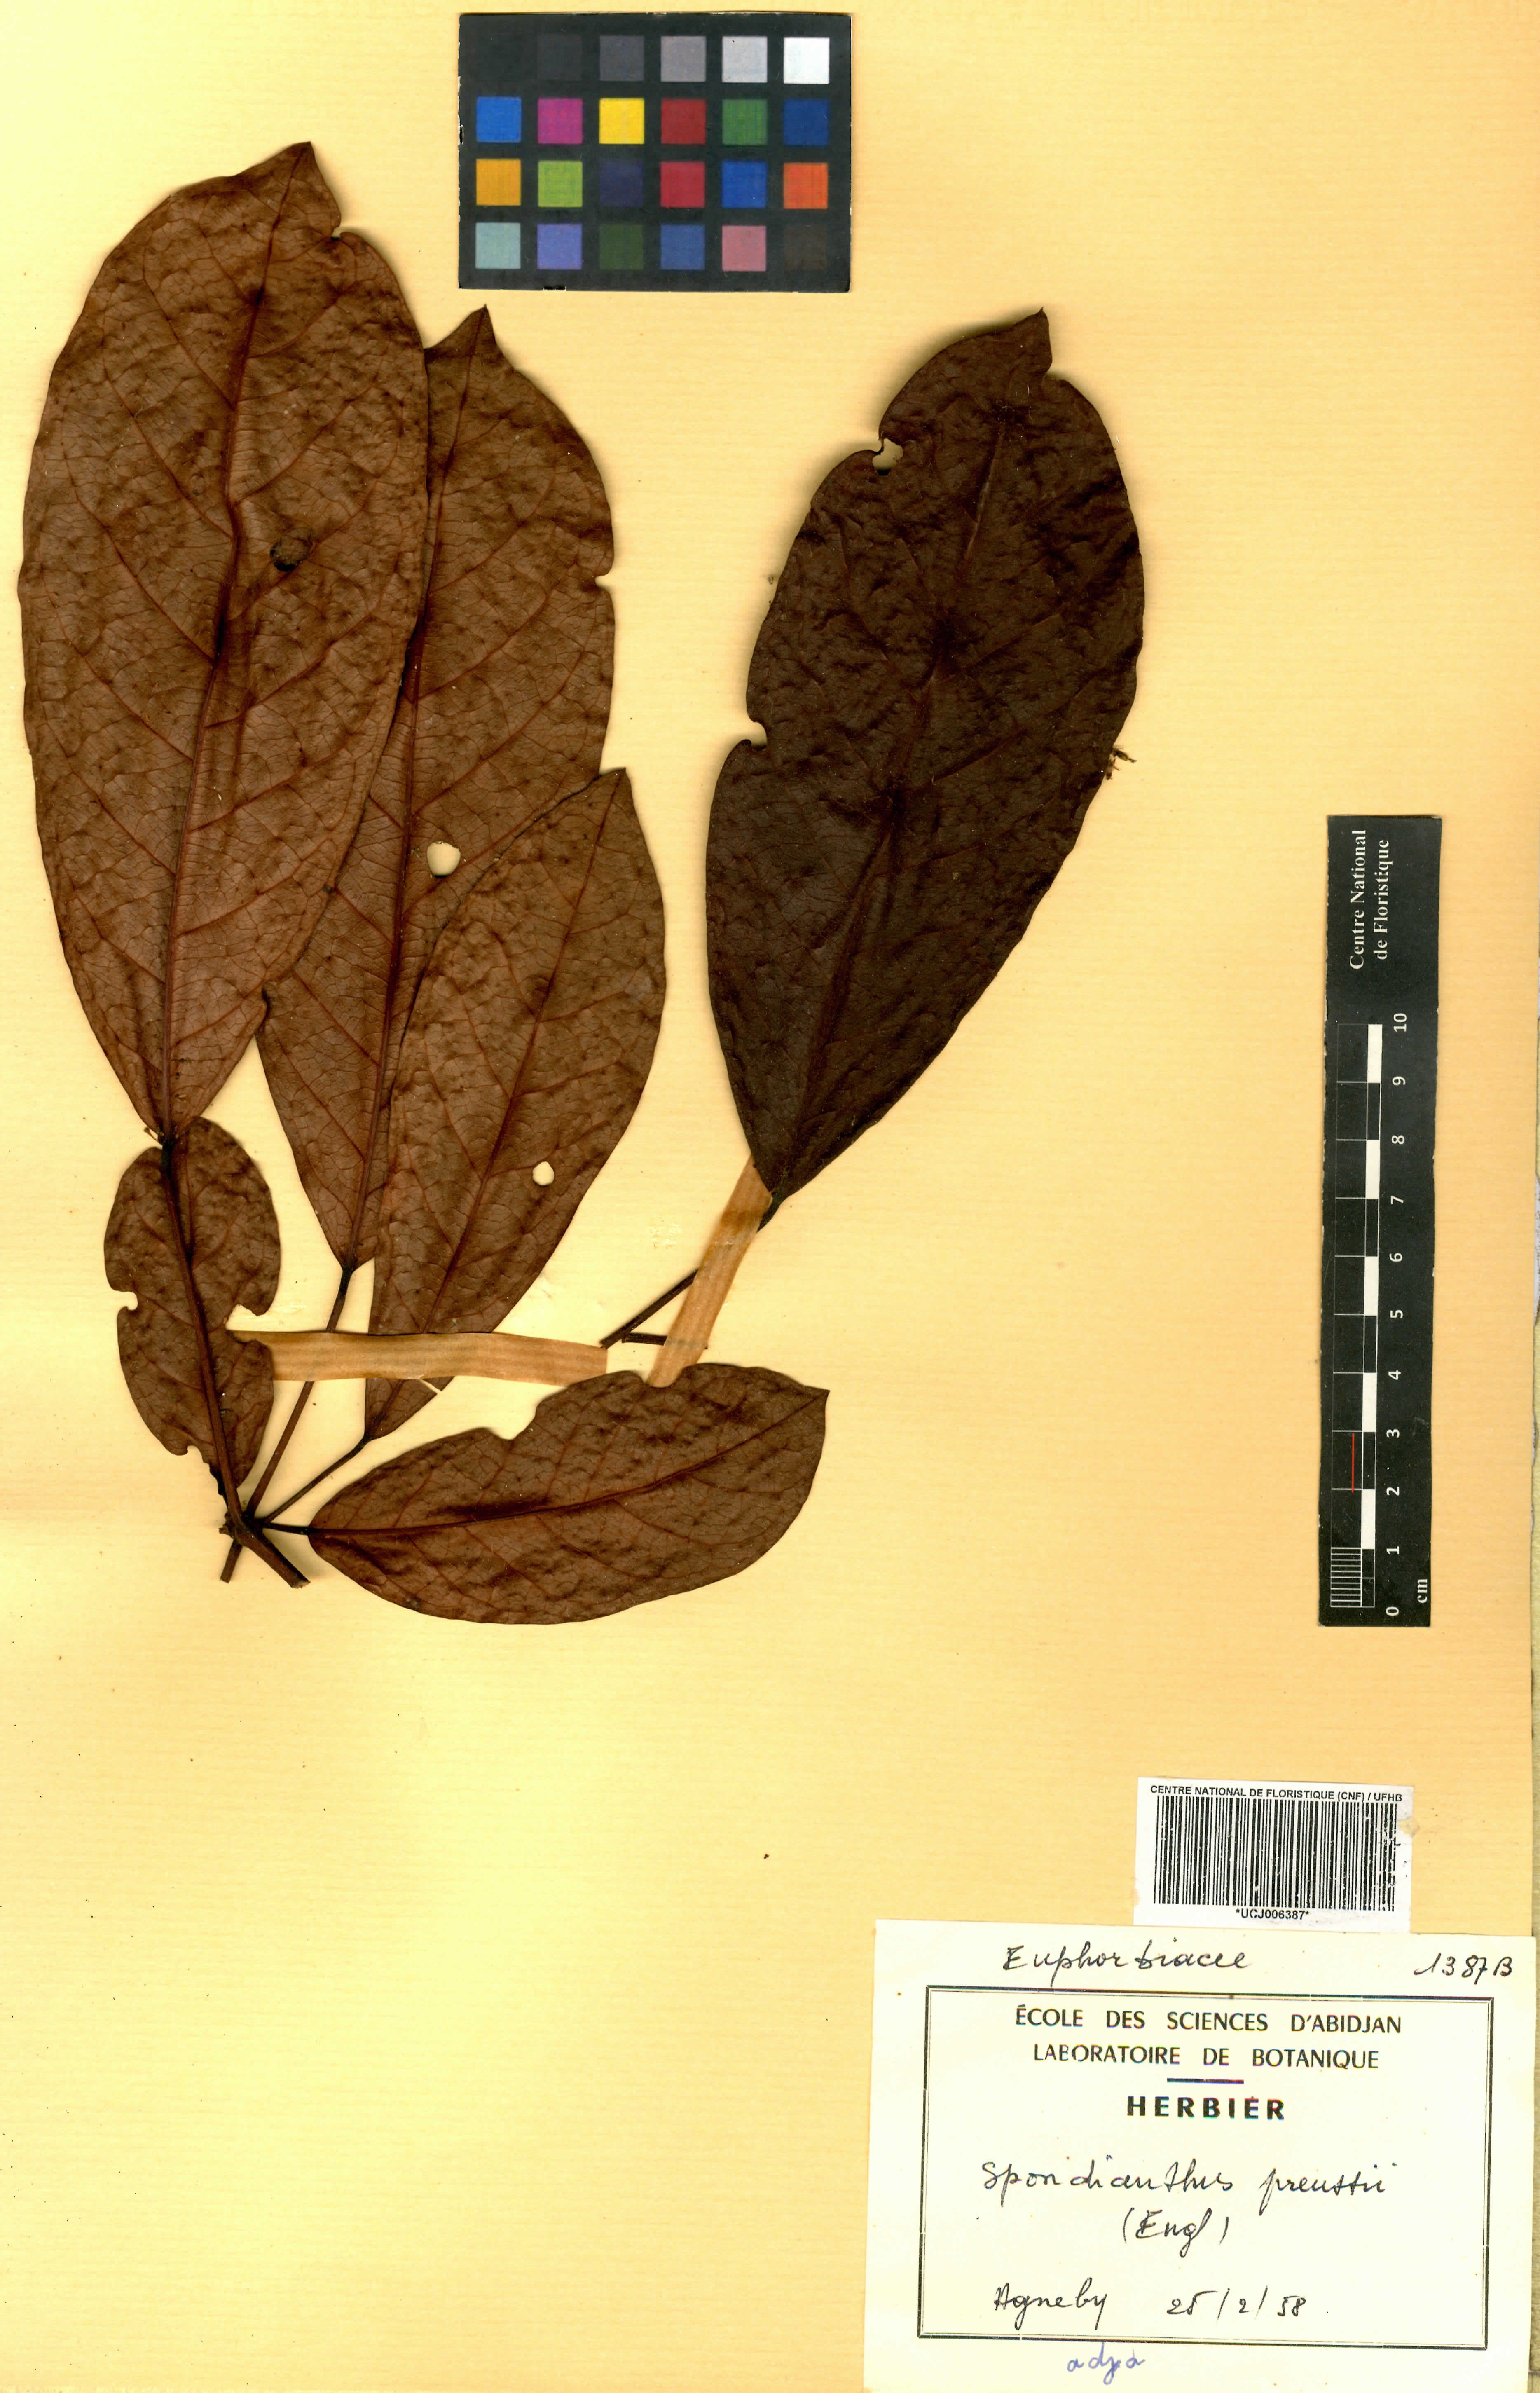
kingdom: Plantae
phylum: Tracheophyta
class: Magnoliopsida
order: Malpighiales
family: Phyllanthaceae
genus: Spondianthus
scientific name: Spondianthus preussii
